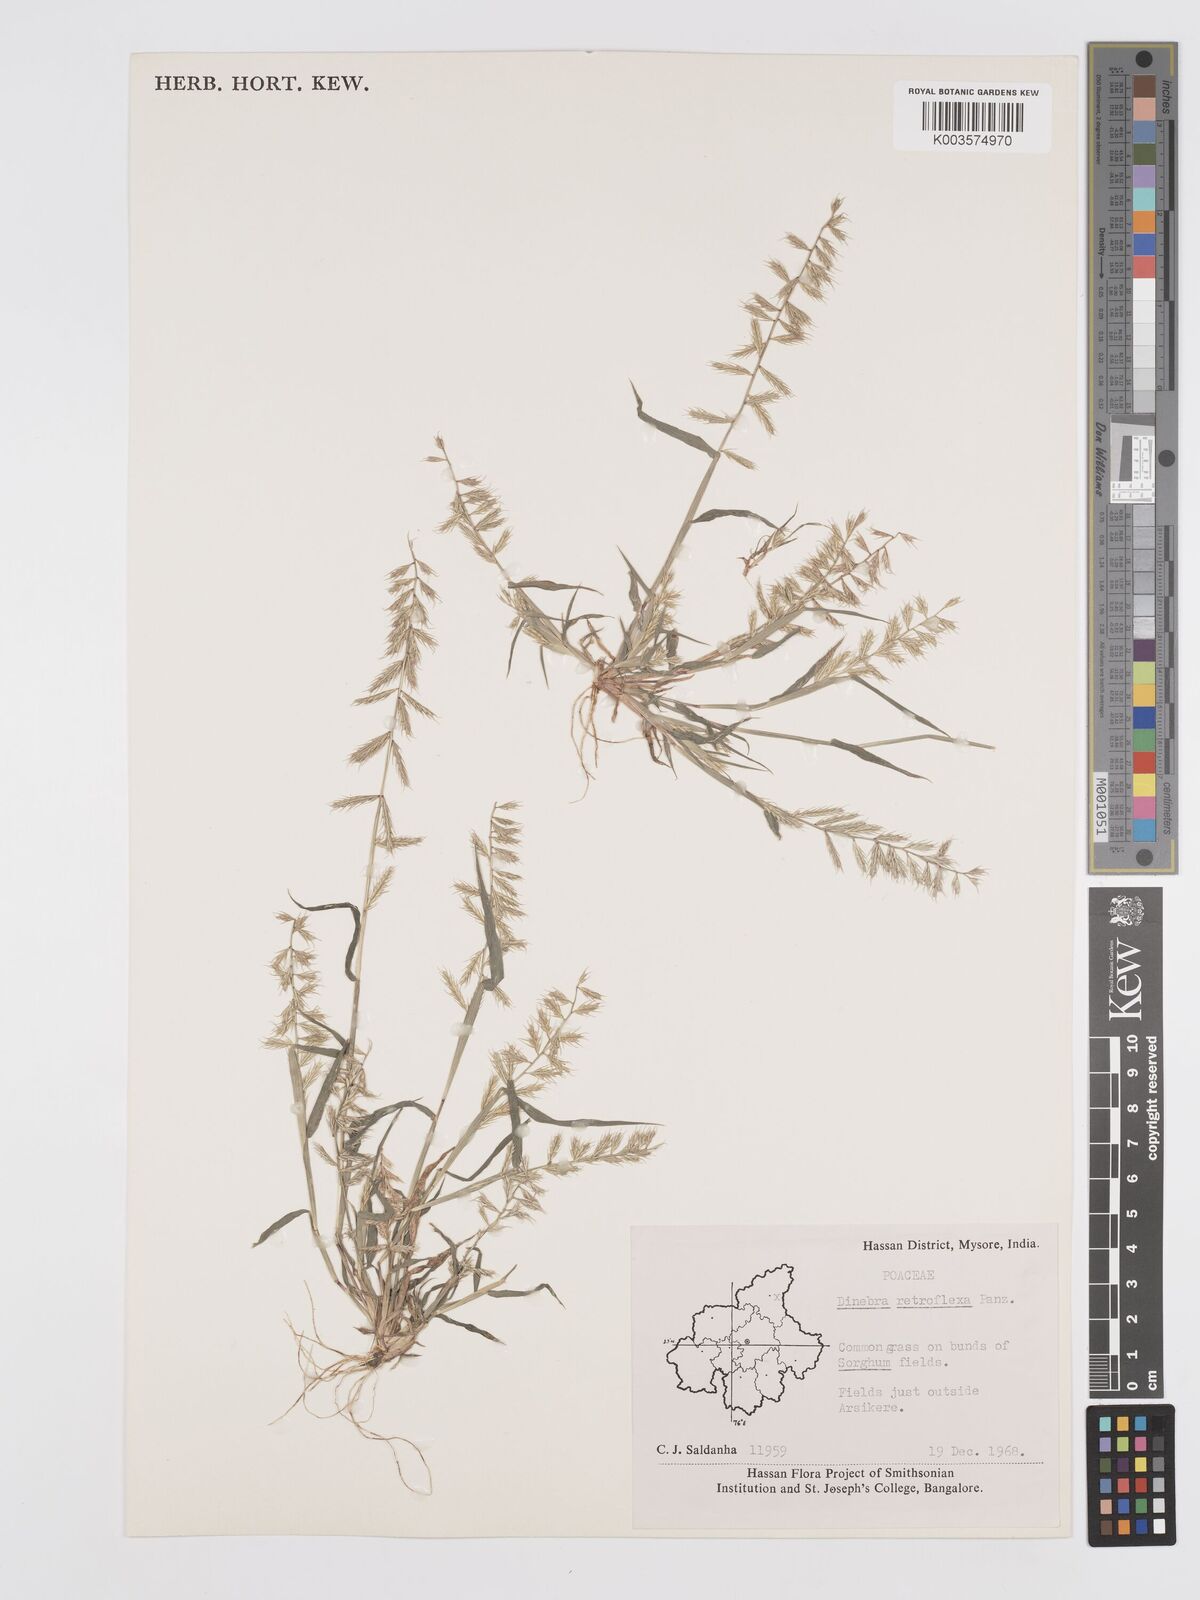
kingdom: Plantae
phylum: Tracheophyta
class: Liliopsida
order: Poales
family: Poaceae
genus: Dinebra
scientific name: Dinebra retroflexa
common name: Viper grass
